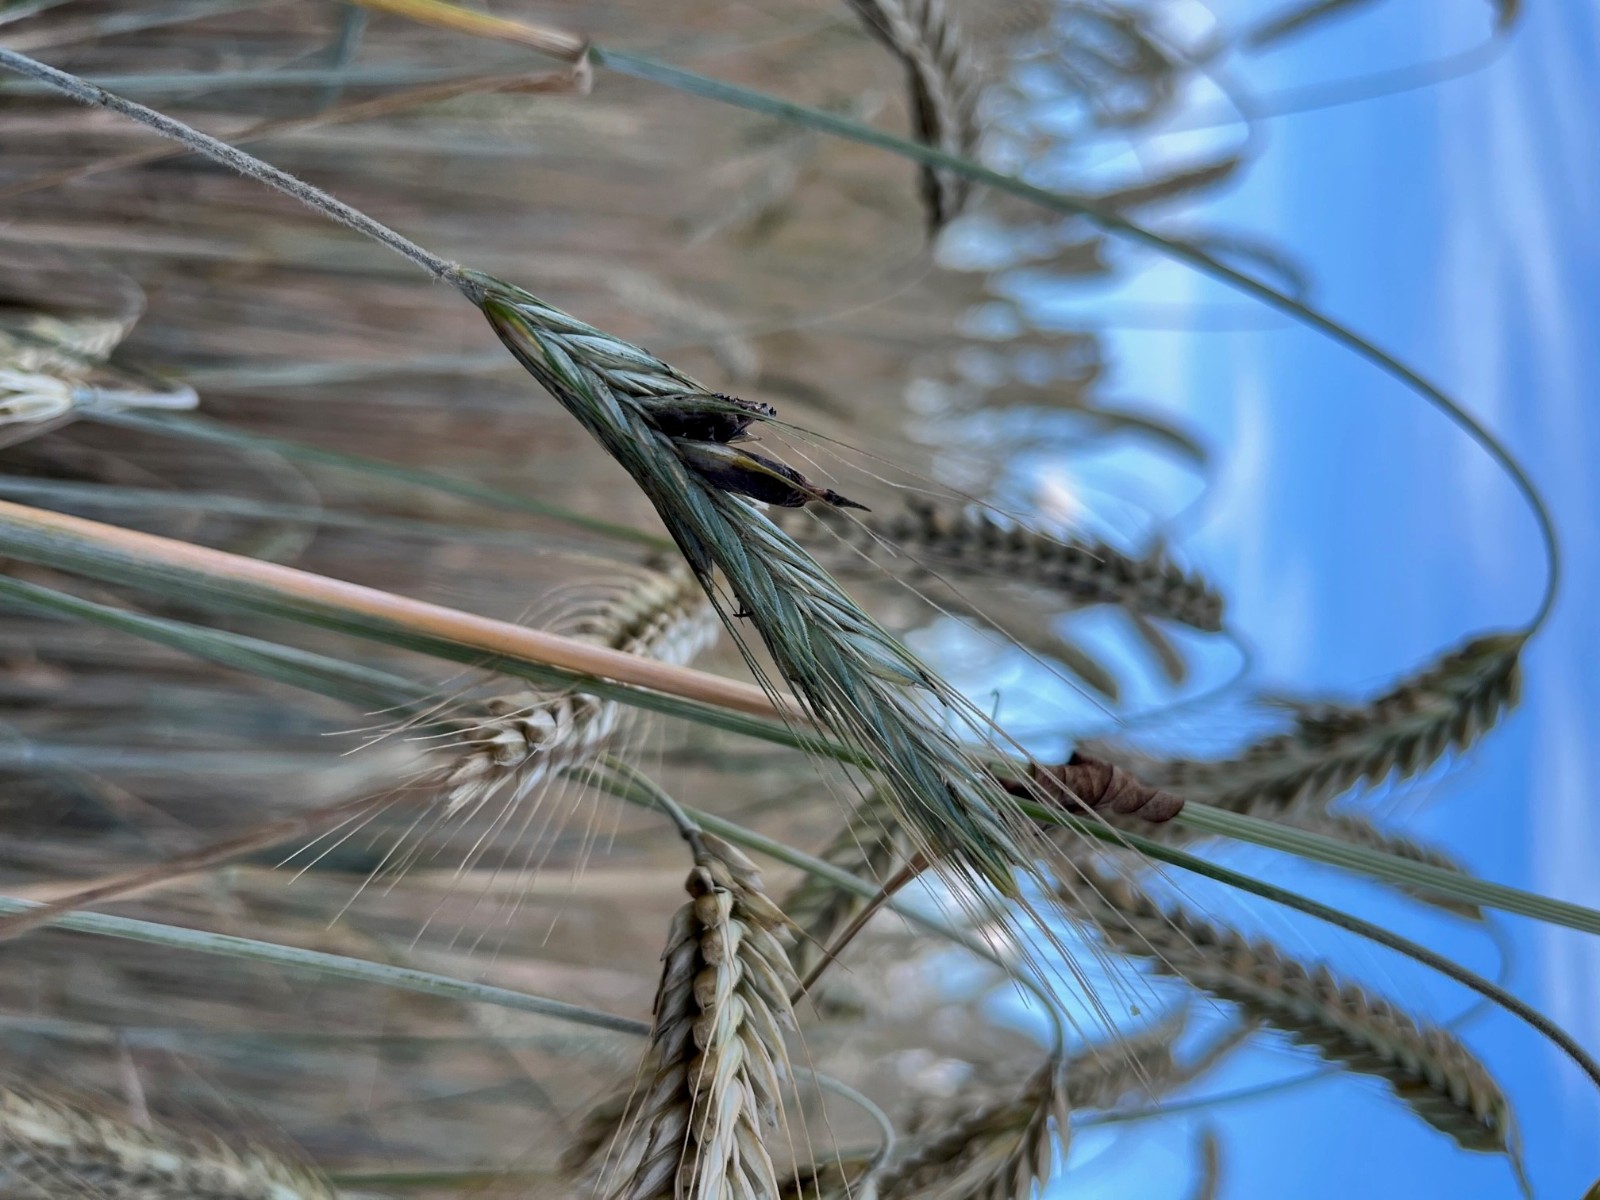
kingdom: Fungi
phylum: Ascomycota
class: Sordariomycetes
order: Hypocreales
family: Clavicipitaceae
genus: Claviceps
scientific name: Claviceps purpurea
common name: almindelig meldrøjer
